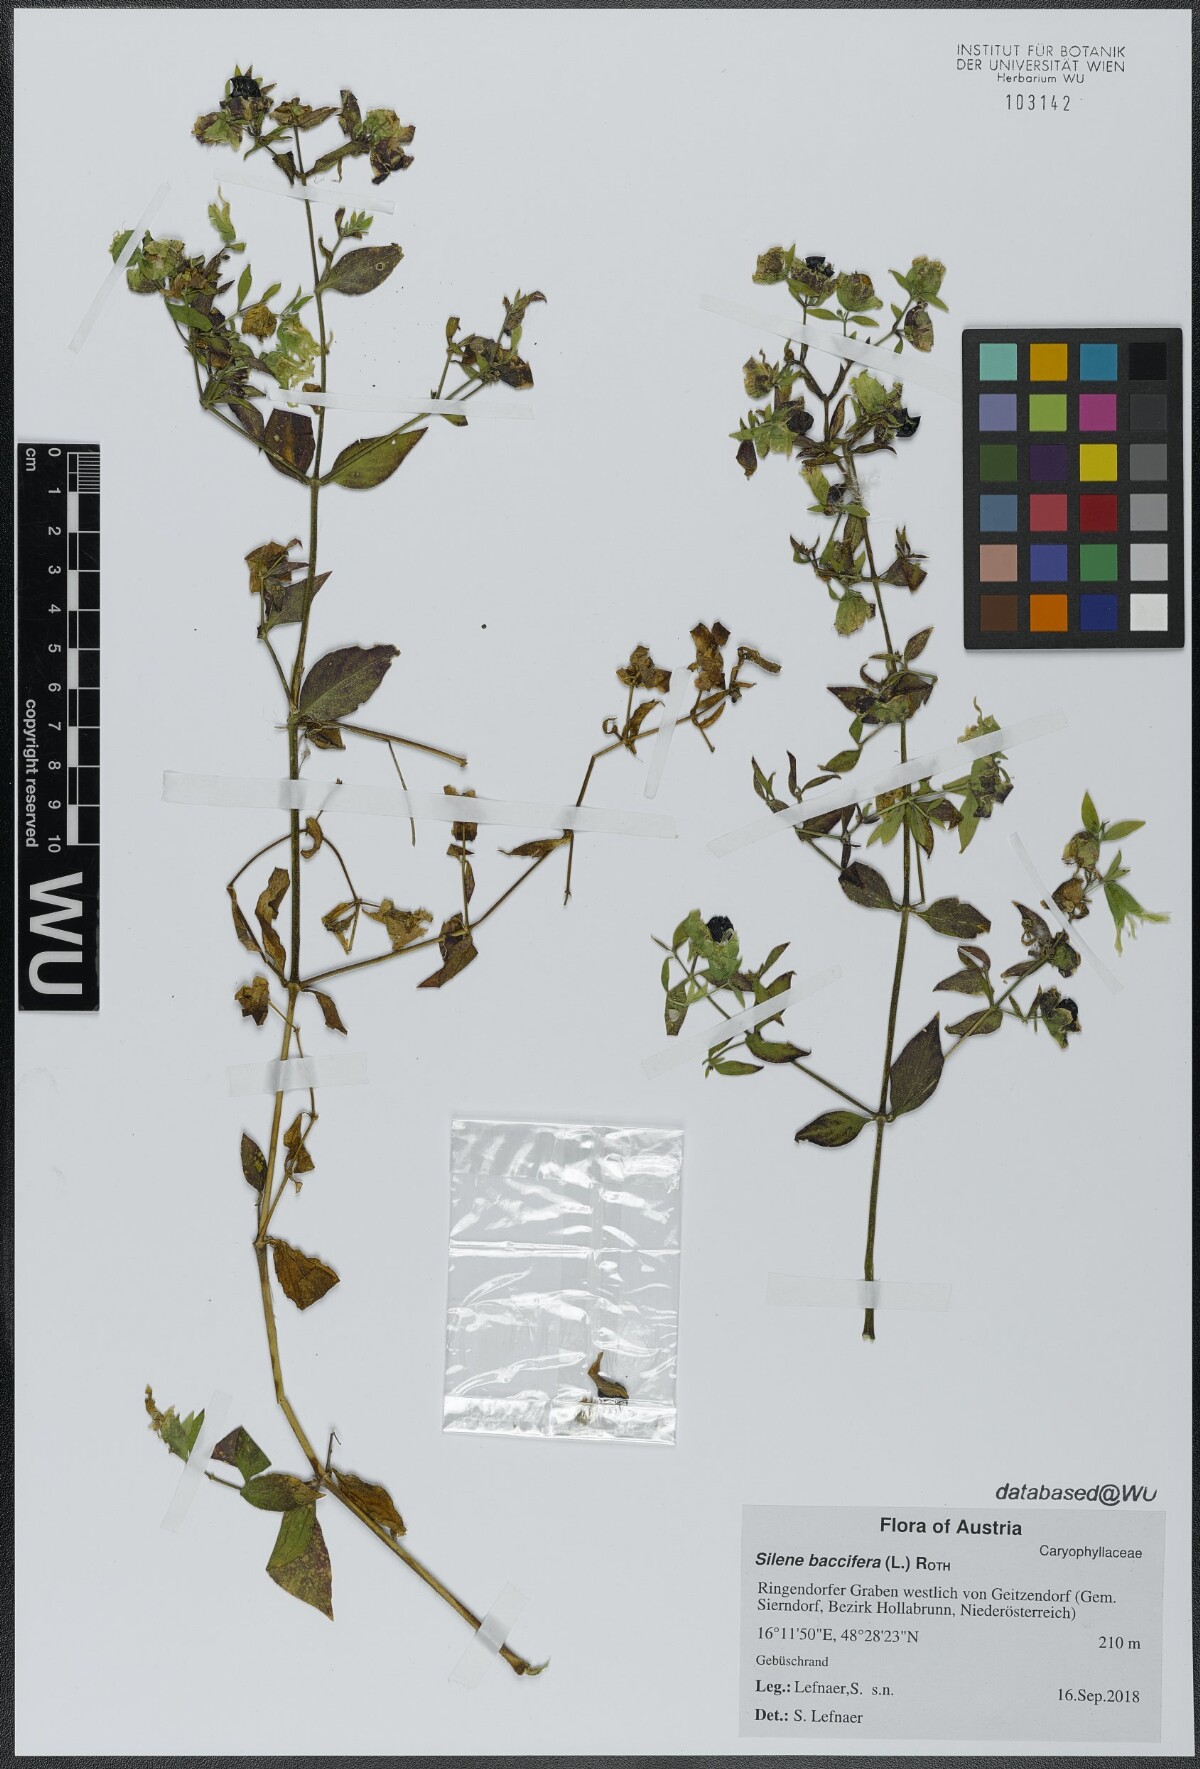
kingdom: Plantae
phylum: Tracheophyta
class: Magnoliopsida
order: Caryophyllales
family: Caryophyllaceae
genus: Silene
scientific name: Silene baccifera
